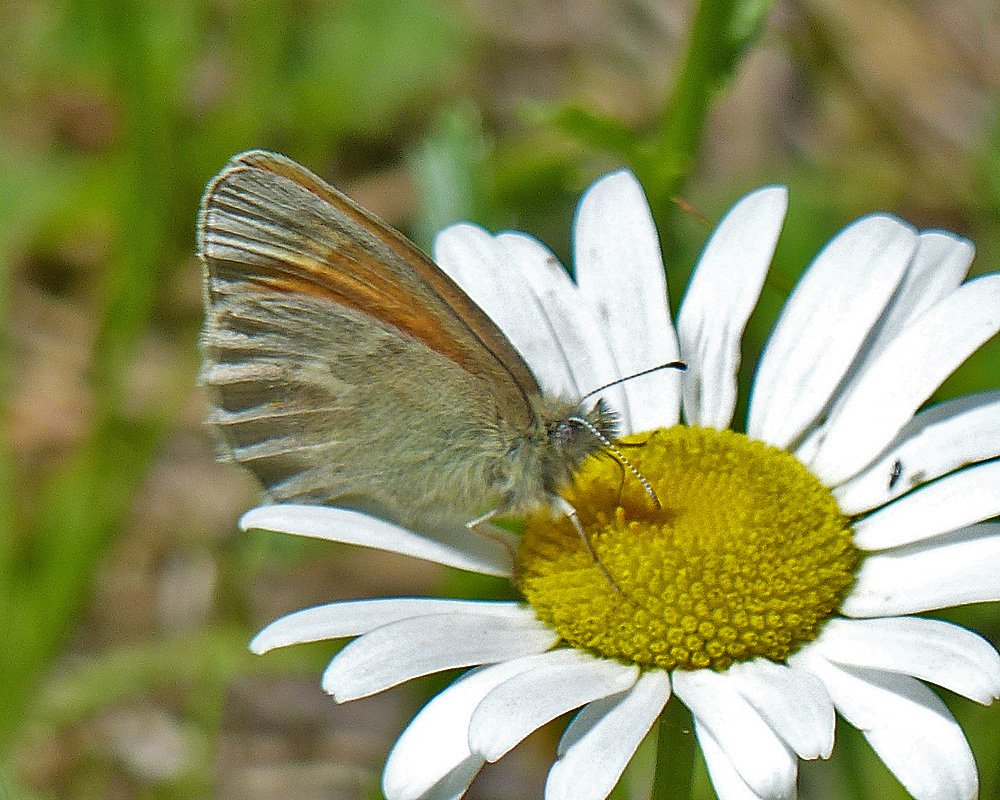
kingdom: Animalia
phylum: Arthropoda
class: Insecta
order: Lepidoptera
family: Nymphalidae
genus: Coenonympha
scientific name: Coenonympha tullia
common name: Large Heath
